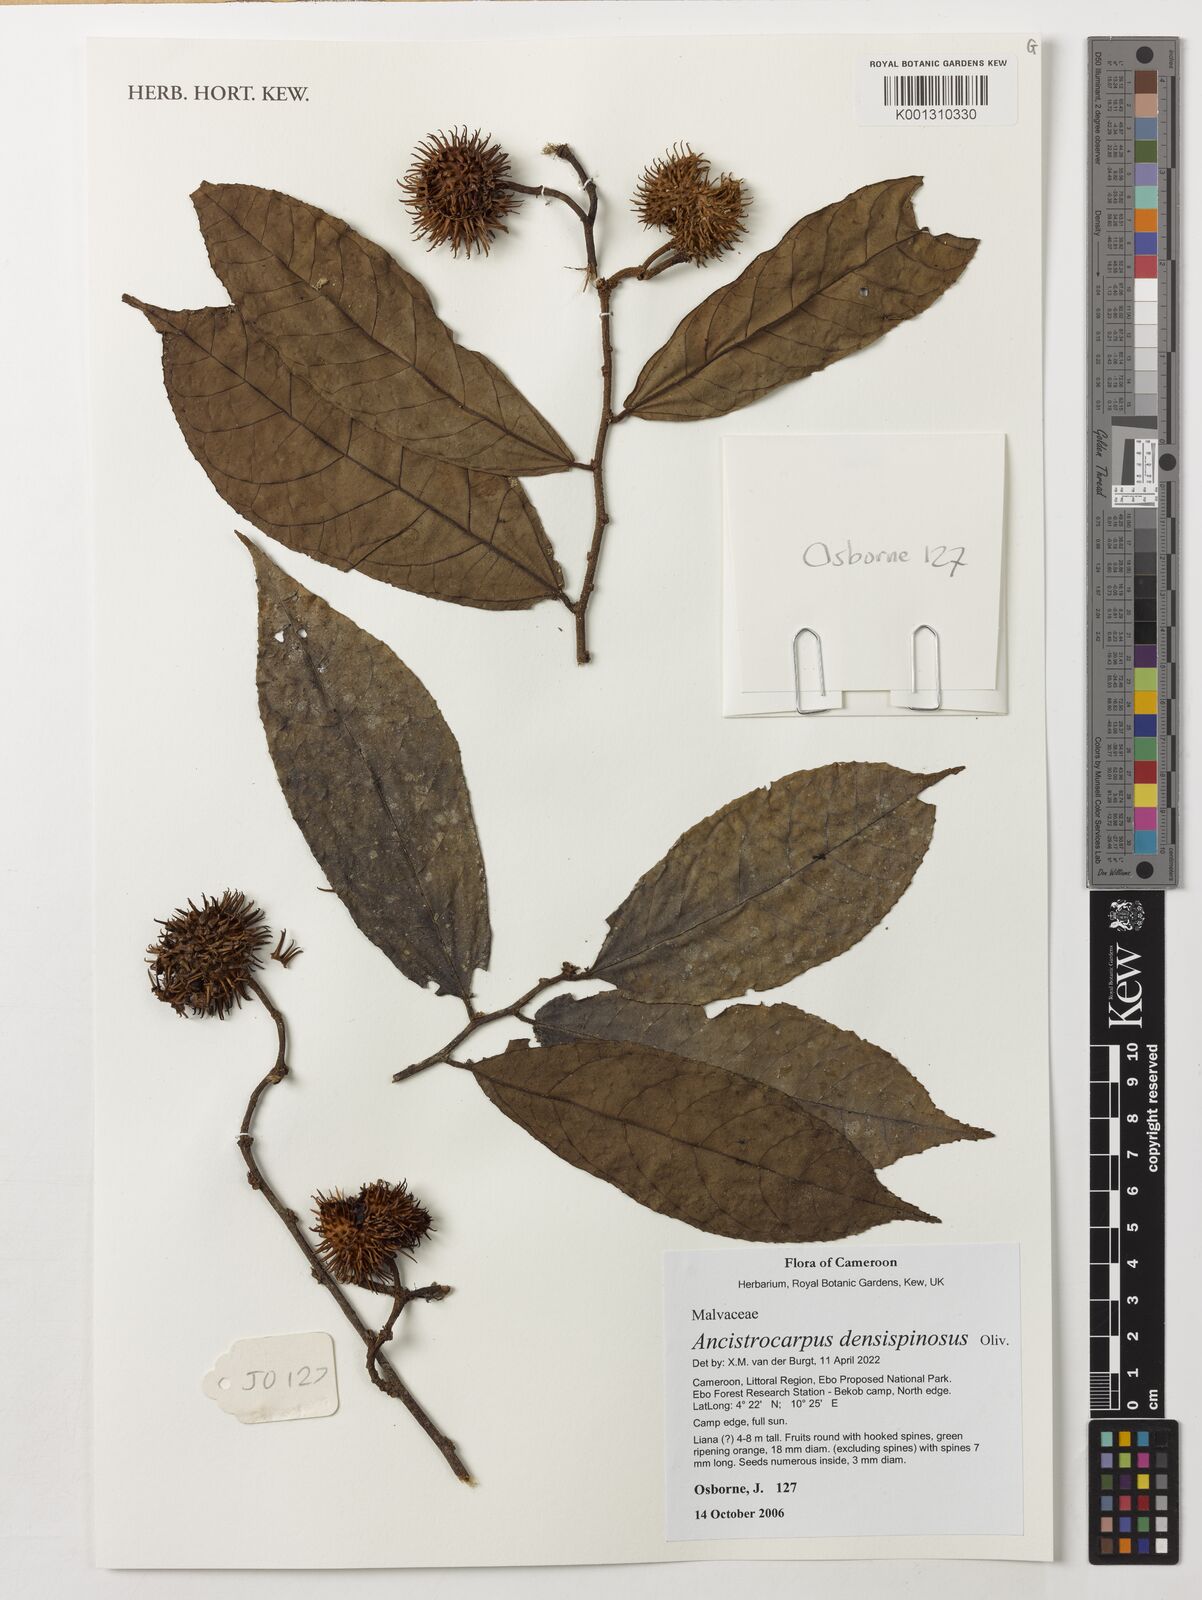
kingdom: Plantae
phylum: Tracheophyta
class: Magnoliopsida
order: Malvales
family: Malvaceae
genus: Ancistrocarpus
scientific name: Ancistrocarpus densispinosus
